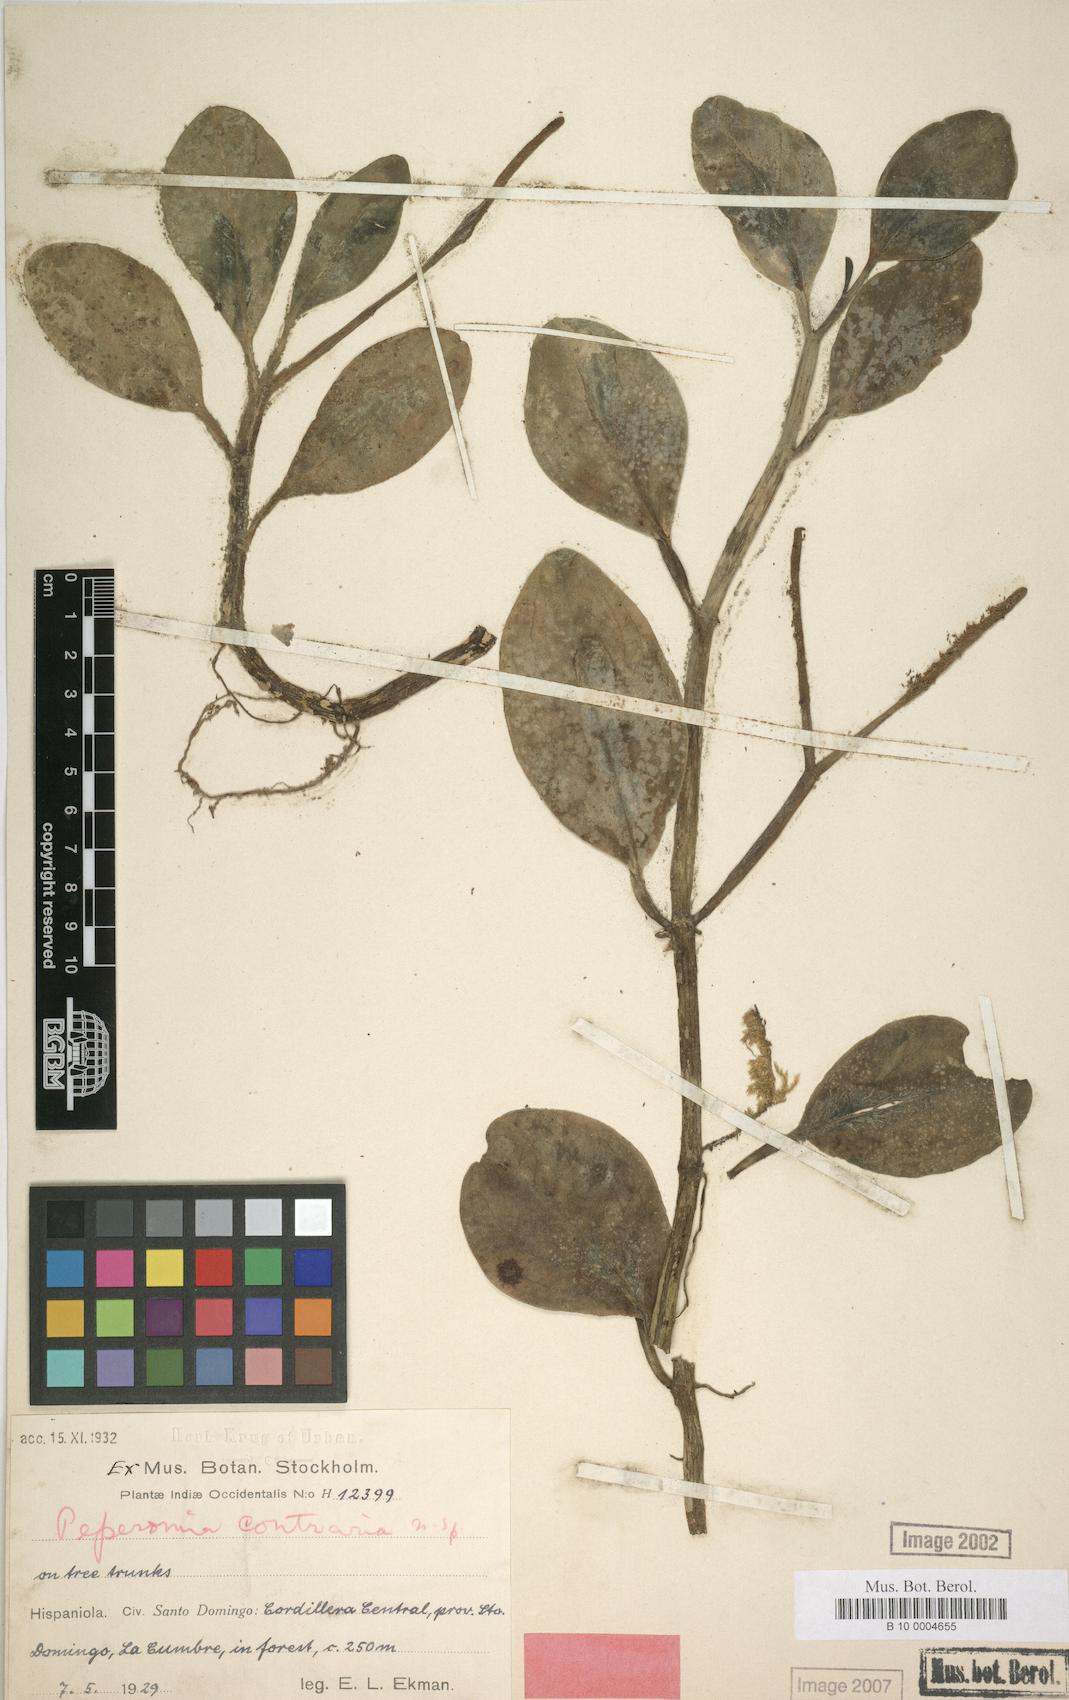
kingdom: Plantae
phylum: Tracheophyta
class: Magnoliopsida
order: Piperales
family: Piperaceae
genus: Peperomia
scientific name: Peperomia magnoliifolia
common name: Spoonleaf peperomia
